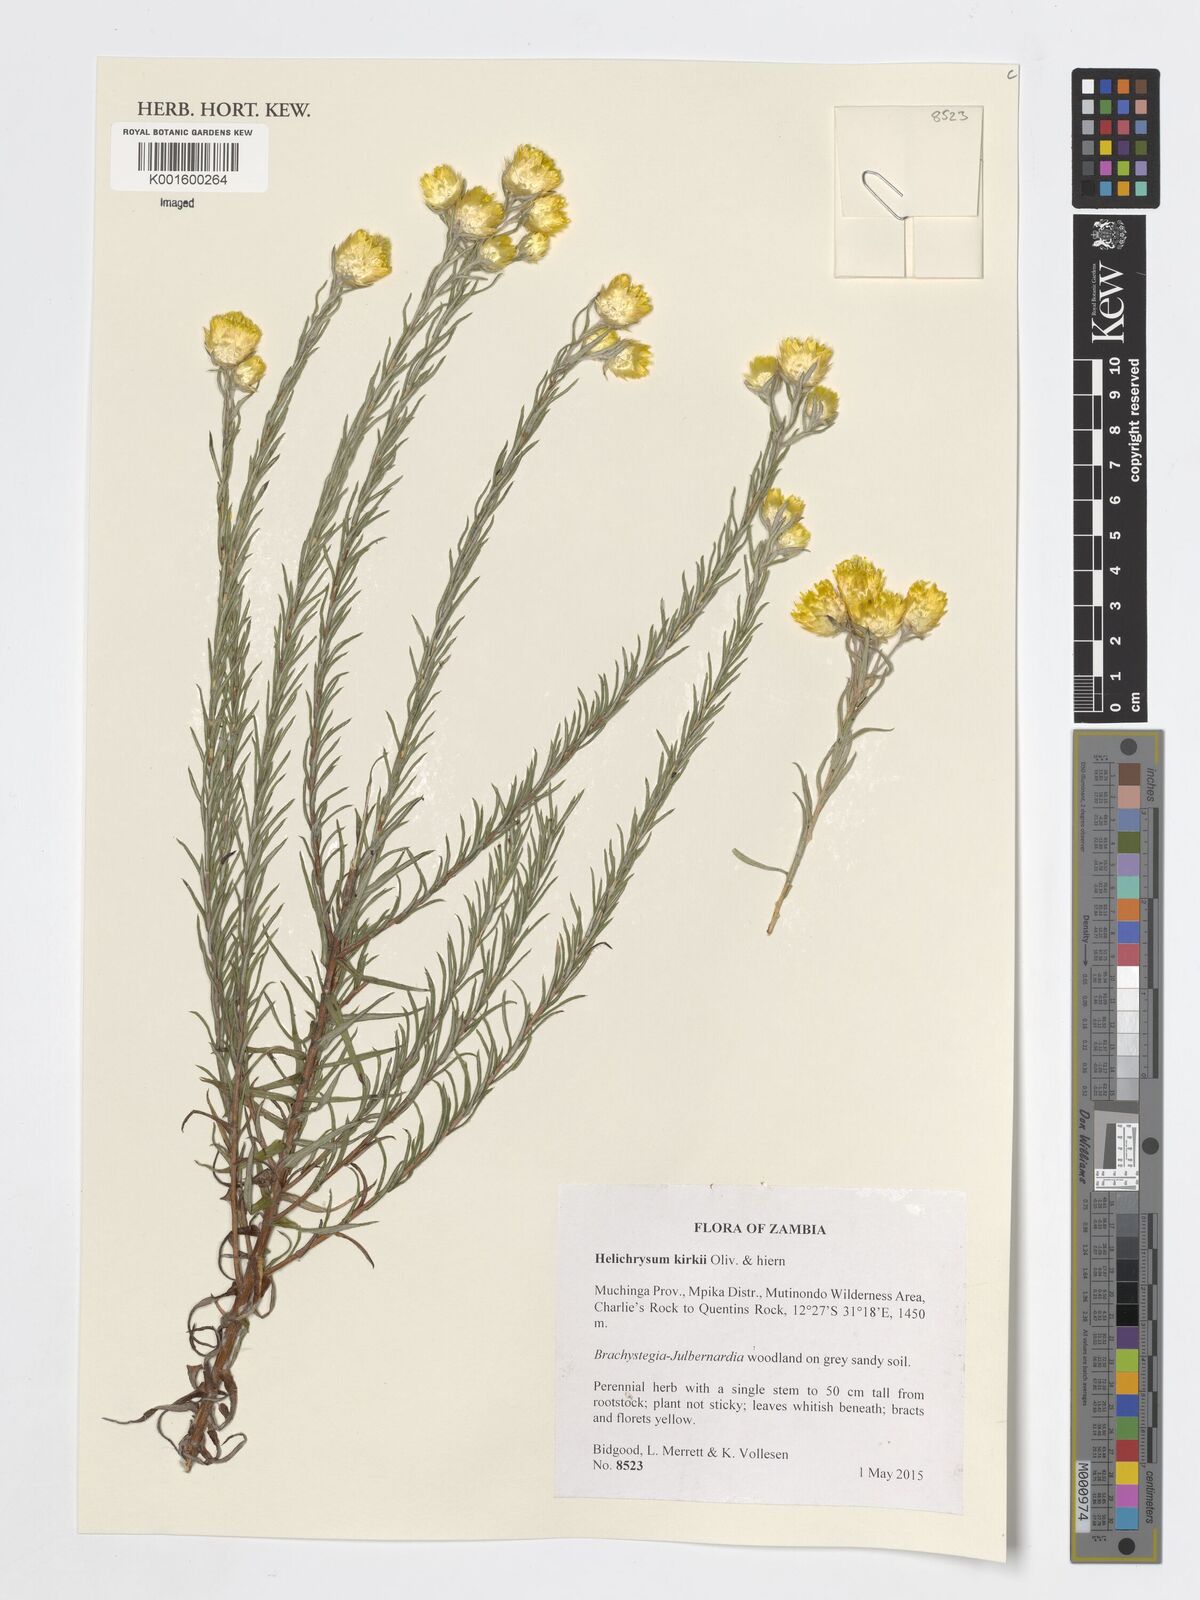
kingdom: Plantae
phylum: Tracheophyta
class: Magnoliopsida
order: Asterales
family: Asteraceae
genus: Helichrysum
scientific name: Helichrysum kirkii
